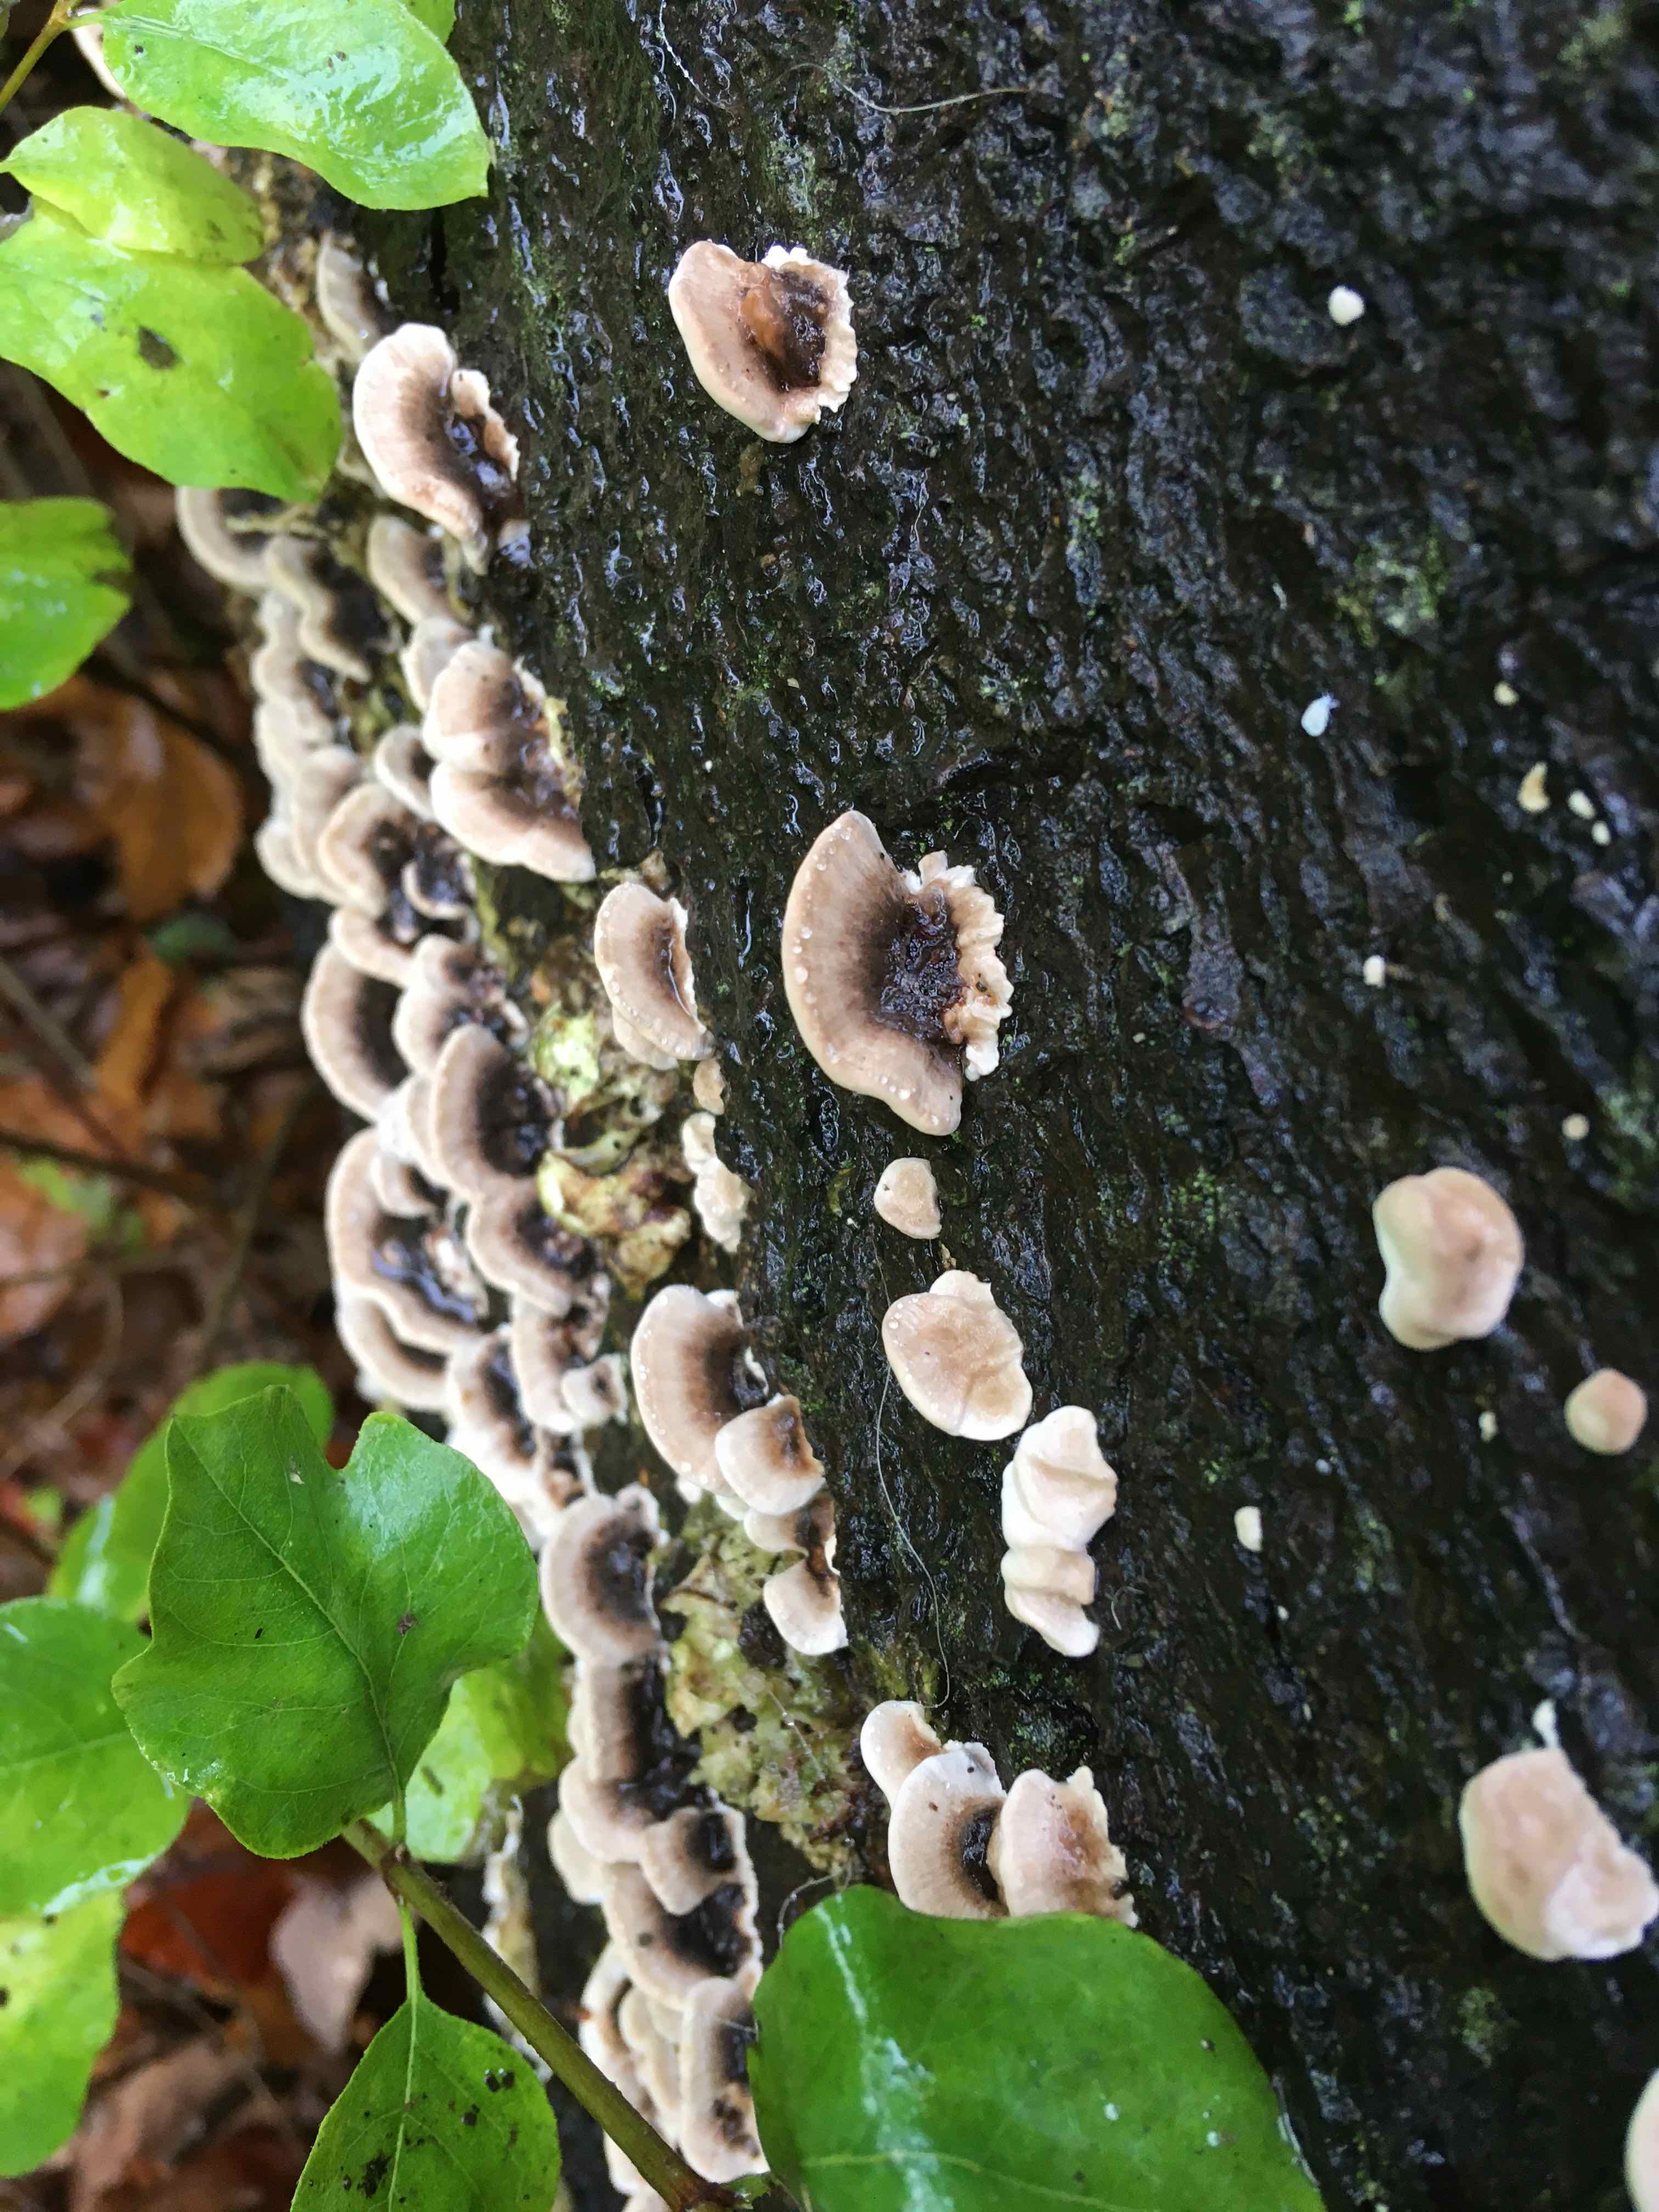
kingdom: Fungi
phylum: Basidiomycota
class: Agaricomycetes
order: Polyporales
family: Polyporaceae
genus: Trametes
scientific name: Trametes versicolor
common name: broget læderporesvamp
